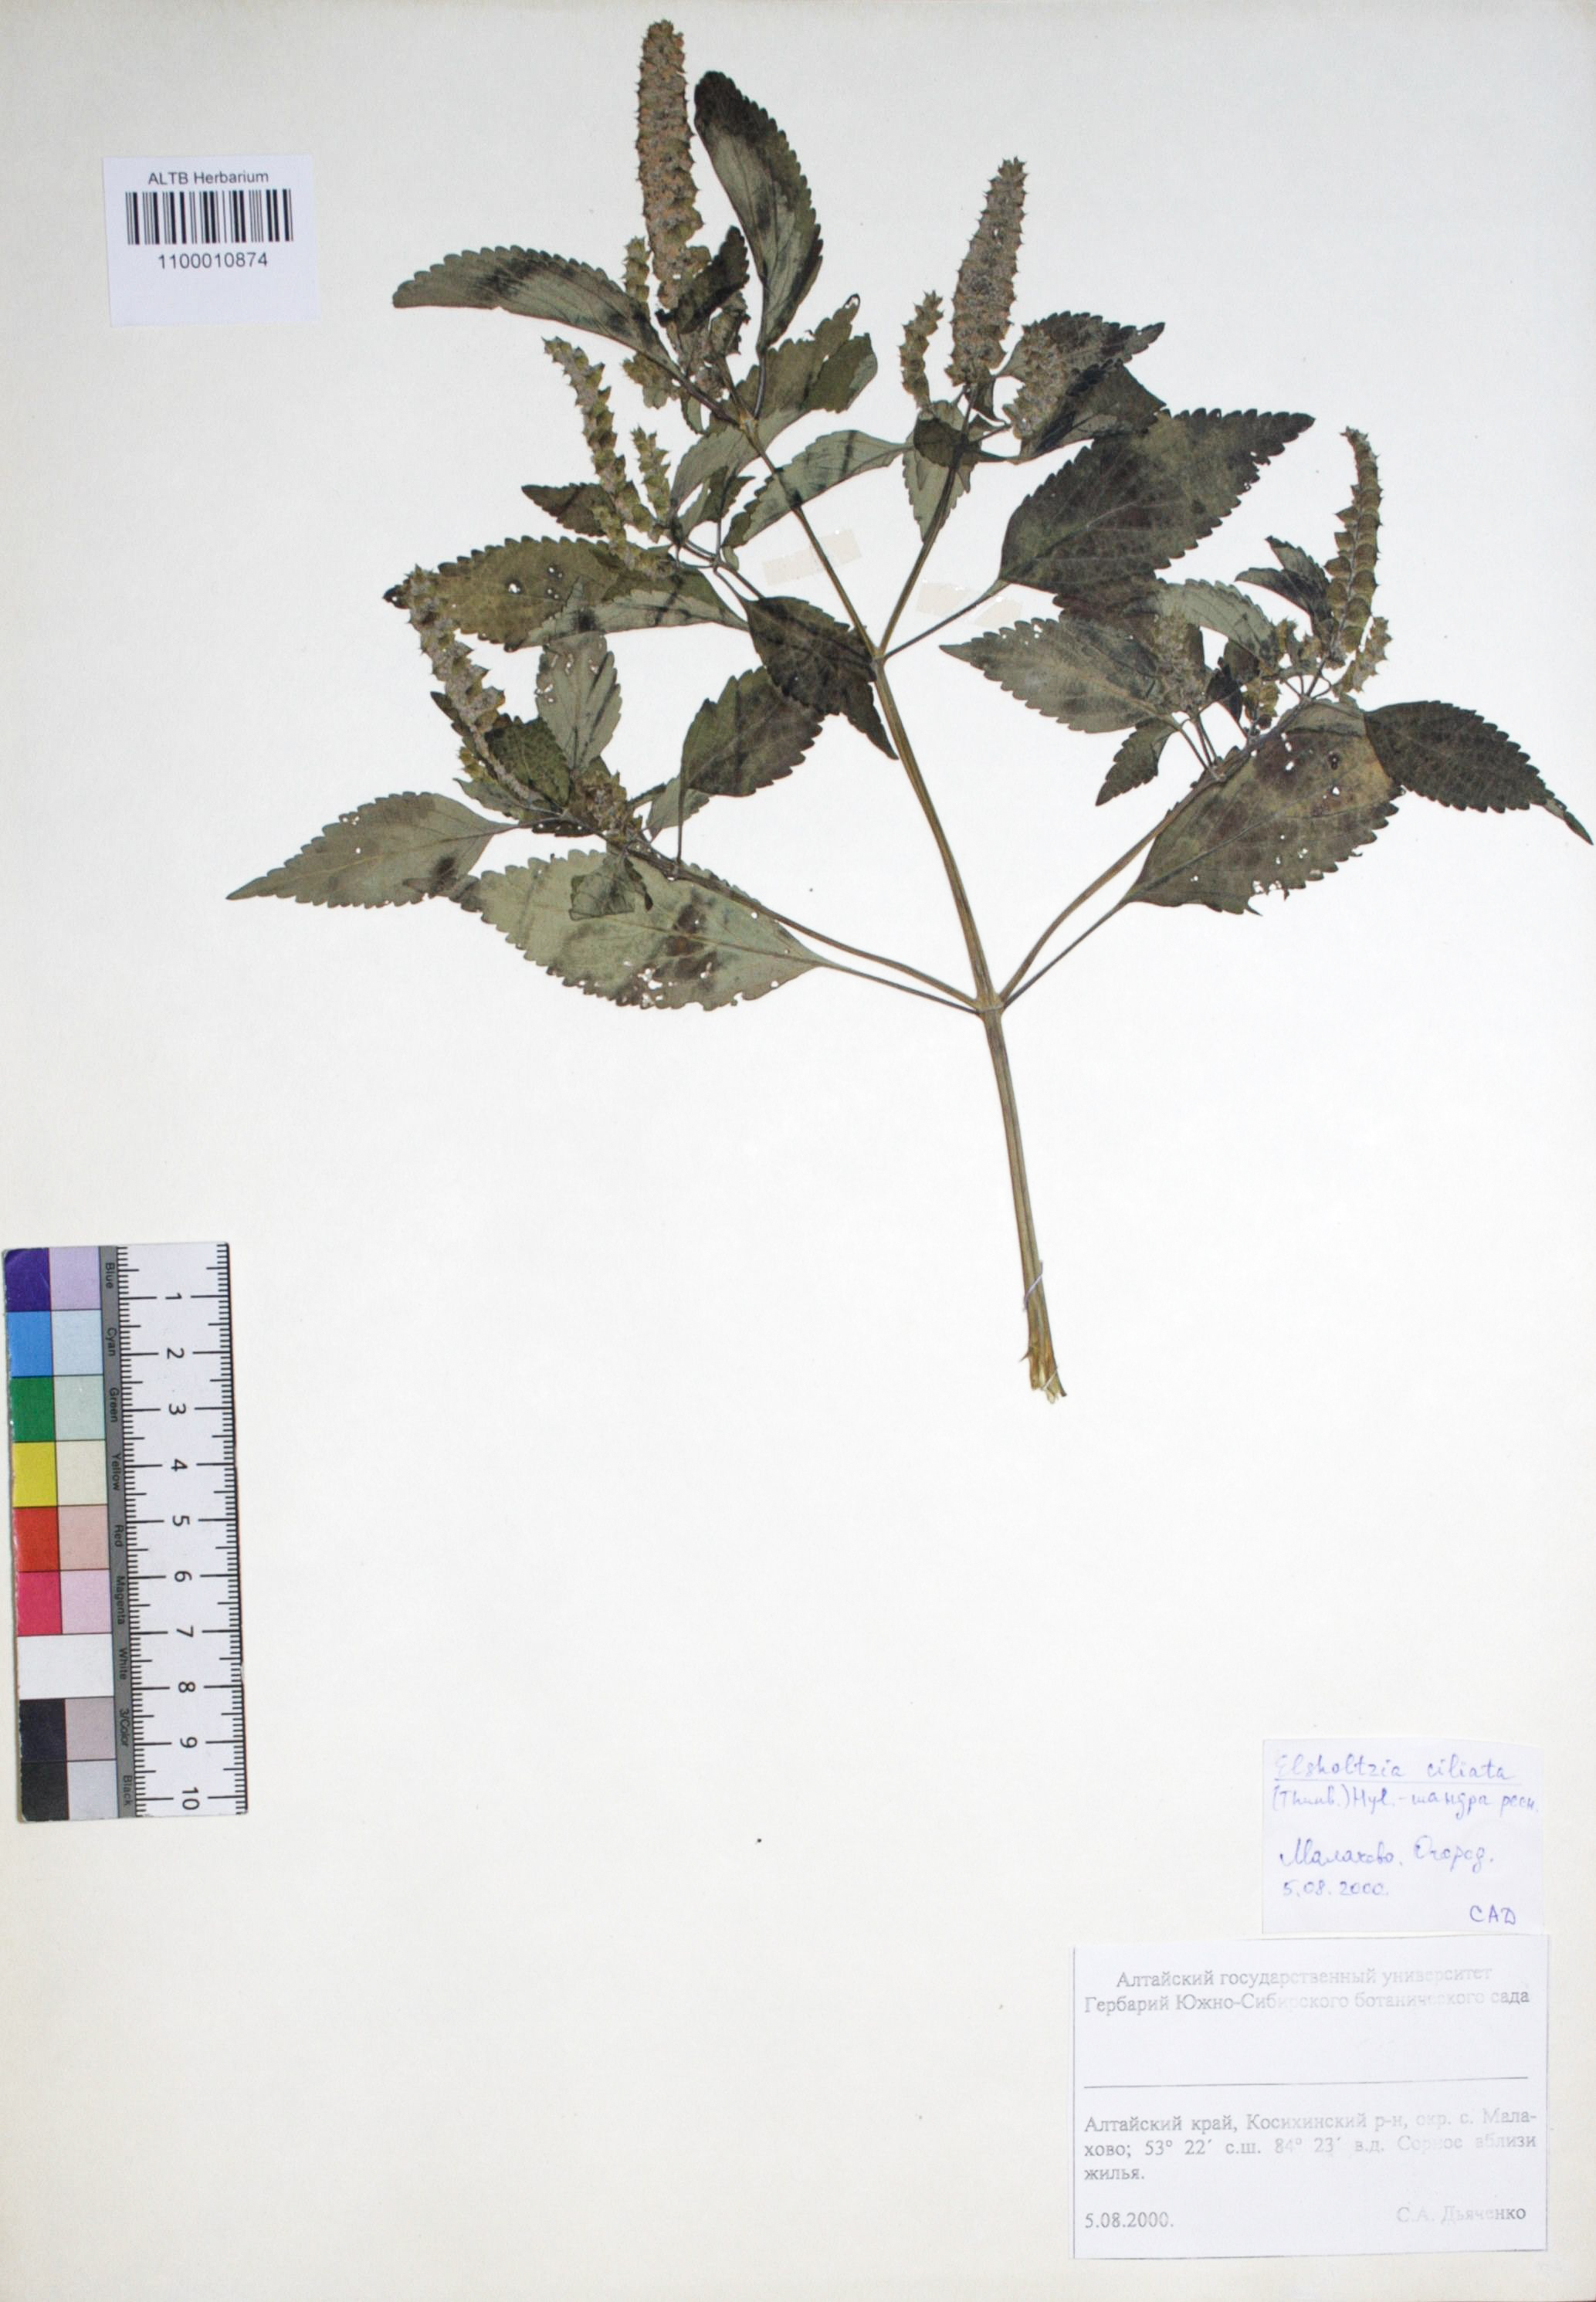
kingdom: Plantae
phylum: Tracheophyta
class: Magnoliopsida
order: Lamiales
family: Lamiaceae
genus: Elsholtzia
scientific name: Elsholtzia ciliata
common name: Ciliate elsholtzia
